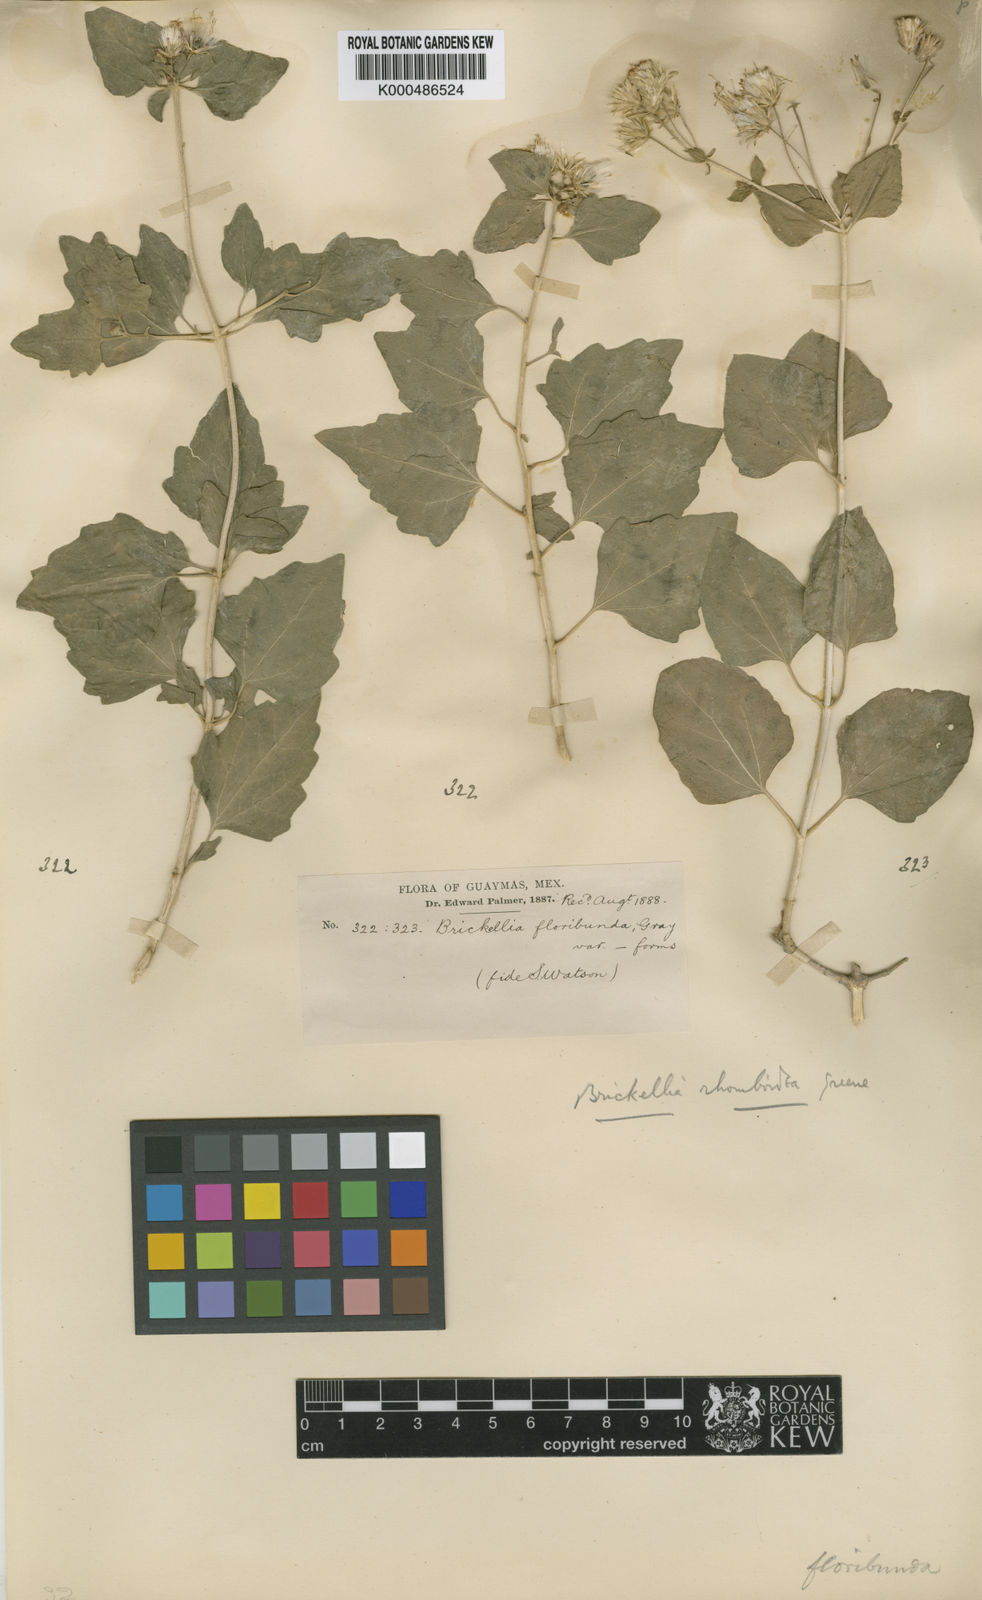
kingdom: Plantae
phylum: Tracheophyta
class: Magnoliopsida
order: Asterales
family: Asteraceae
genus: Brickellia
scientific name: Brickellia rhomboidea
